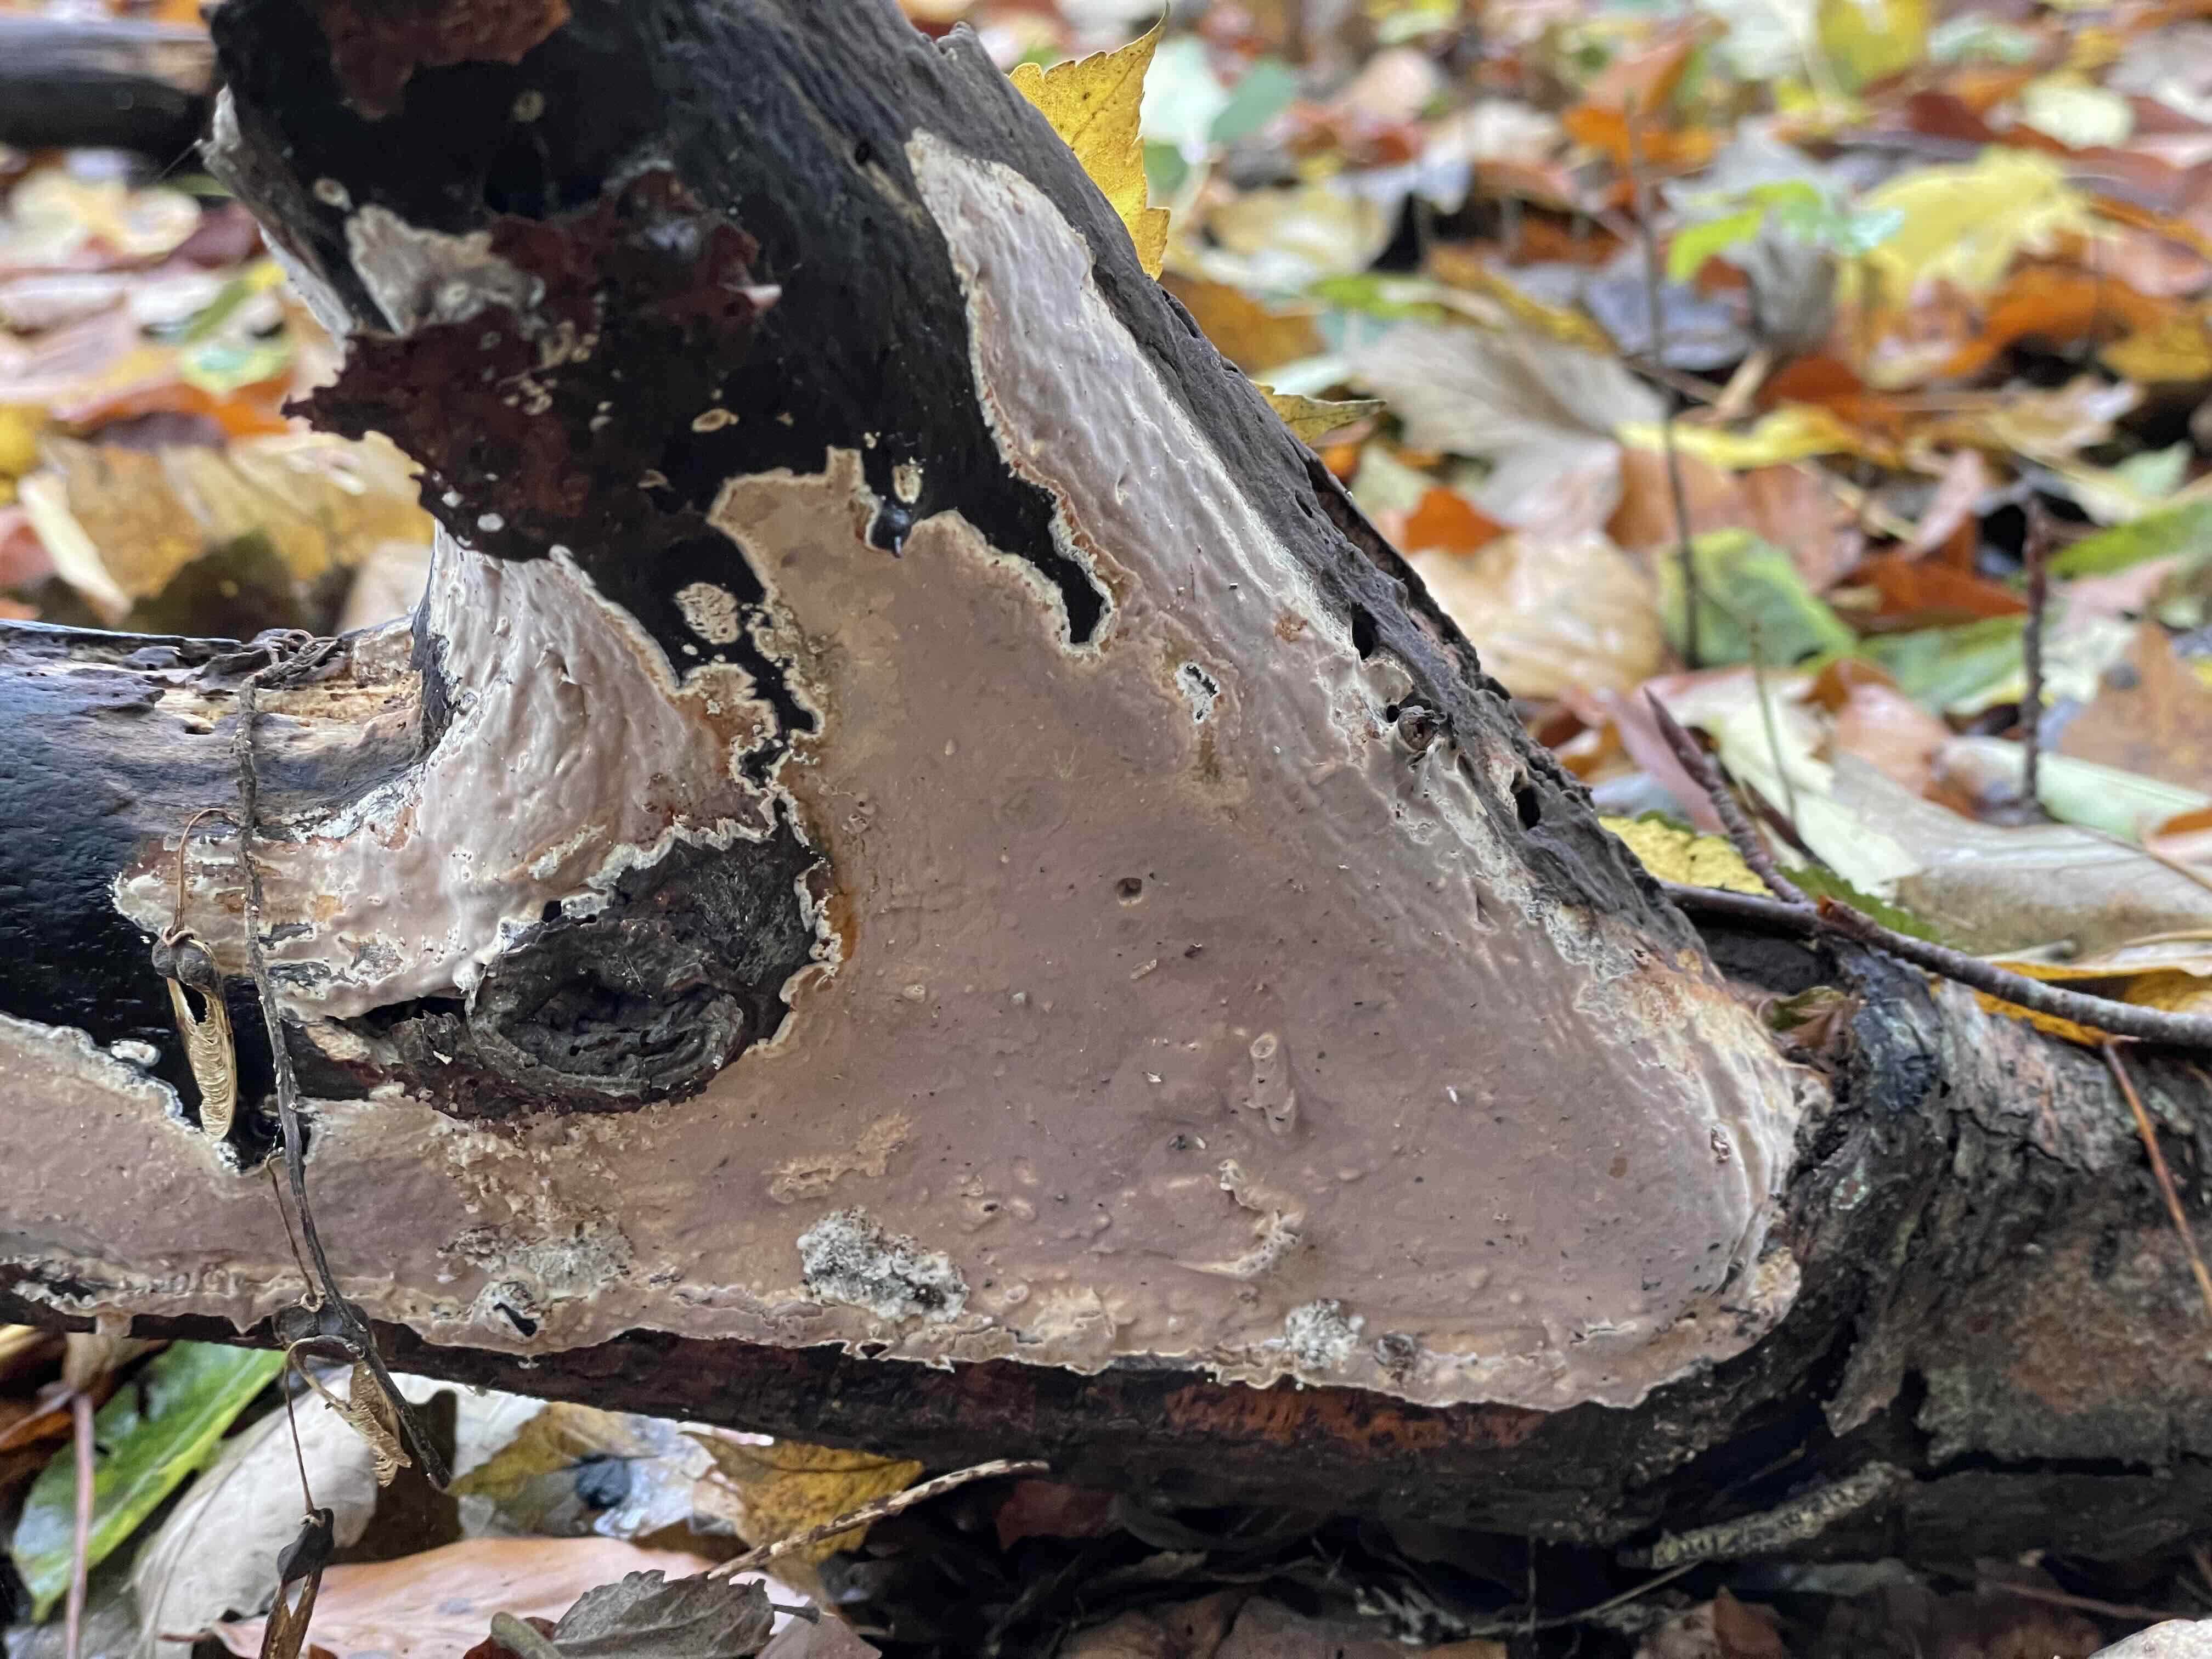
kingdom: Fungi
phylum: Basidiomycota
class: Agaricomycetes
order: Russulales
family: Peniophoraceae
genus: Scytinostroma
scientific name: Scytinostroma hemidichophyticum
